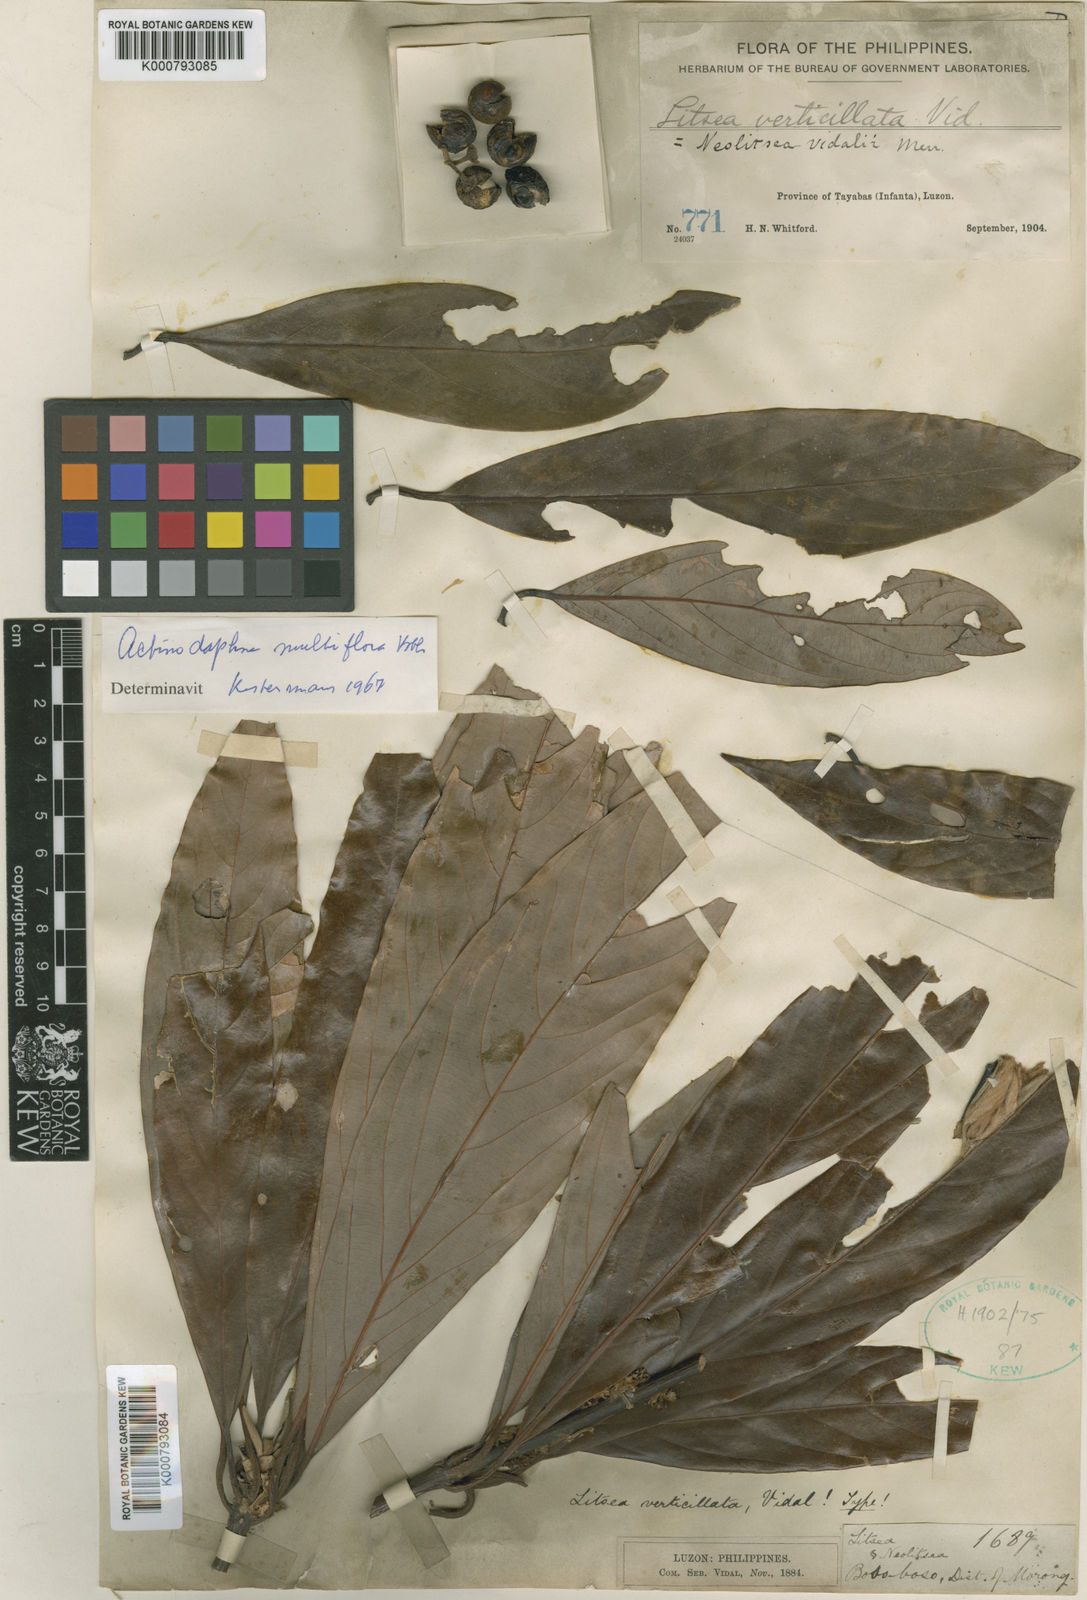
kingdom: Plantae
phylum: Tracheophyta
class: Magnoliopsida
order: Laurales
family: Lauraceae
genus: Actinodaphne
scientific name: Actinodaphne multiflora
